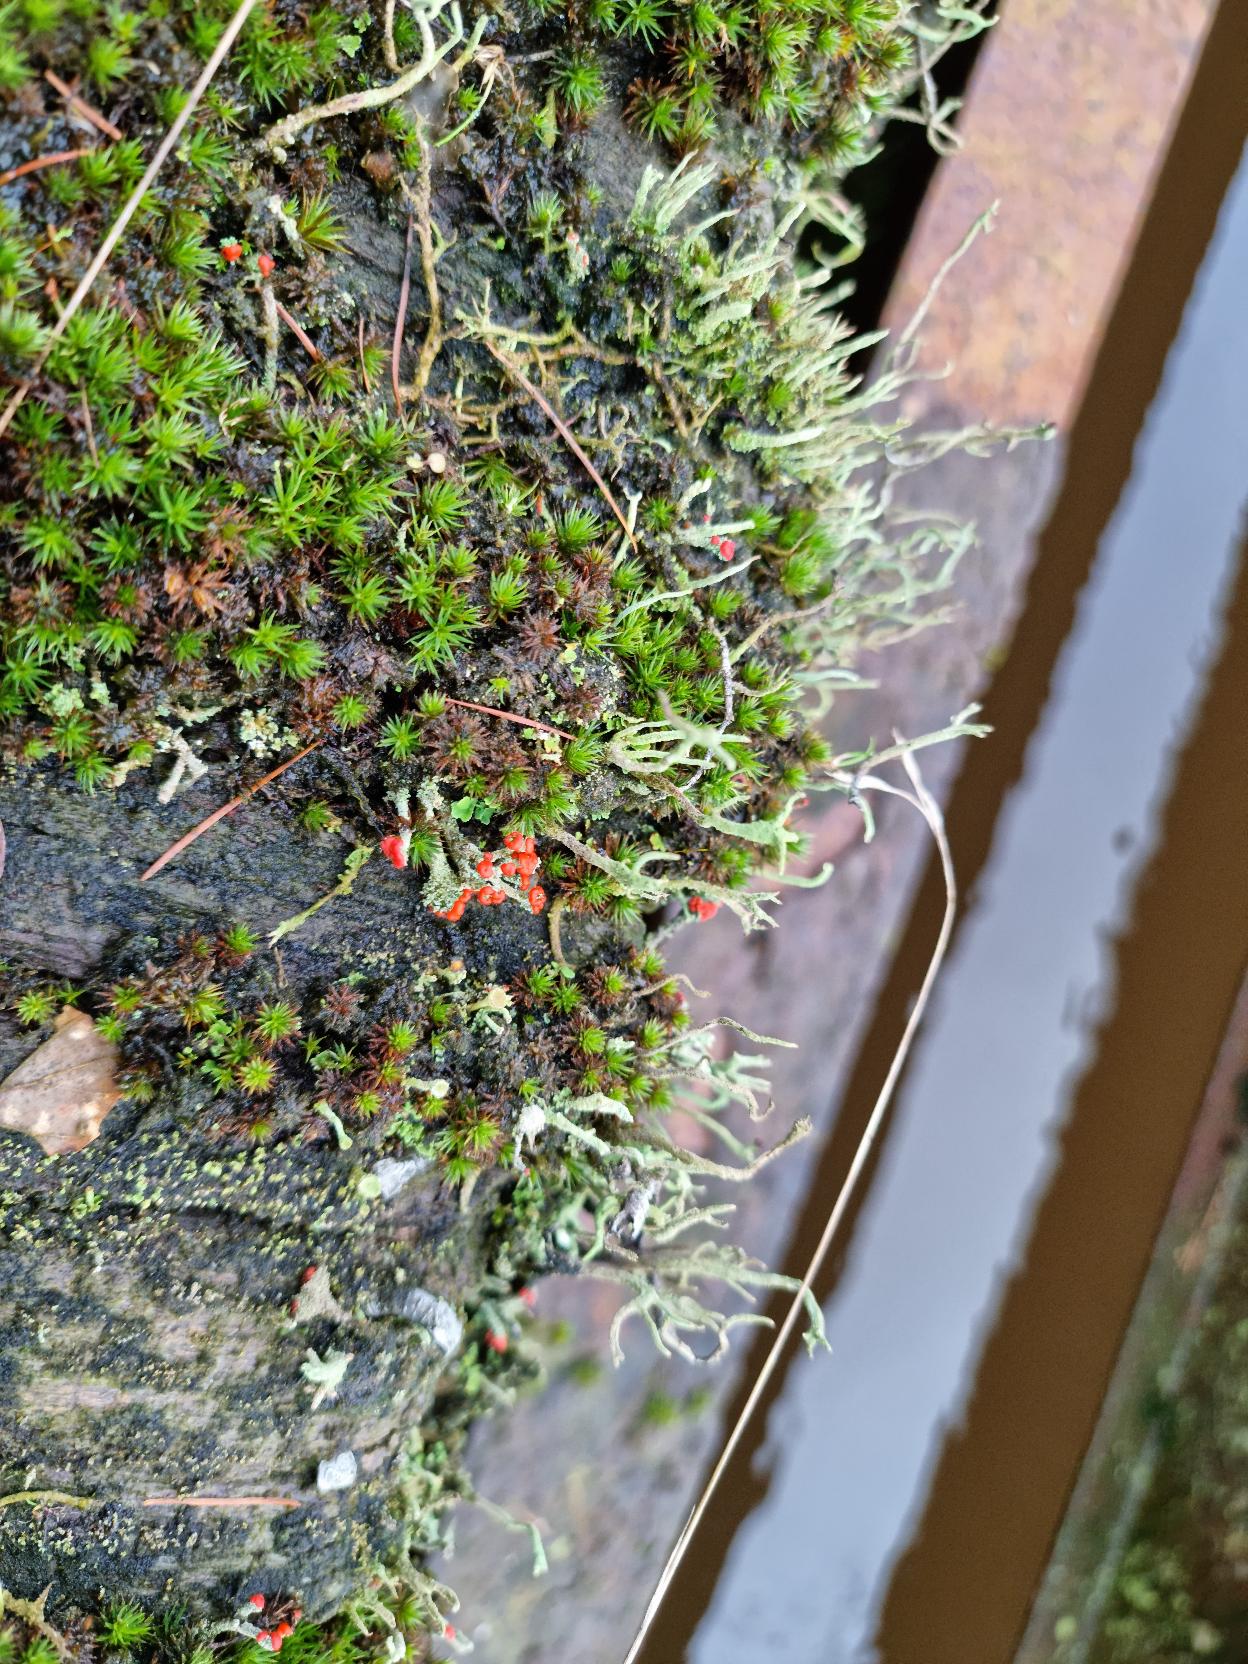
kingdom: Fungi
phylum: Ascomycota
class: Lecanoromycetes
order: Lecanorales
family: Cladoniaceae
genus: Cladonia
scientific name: Cladonia floerkeana
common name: Lakrød bægerlav
